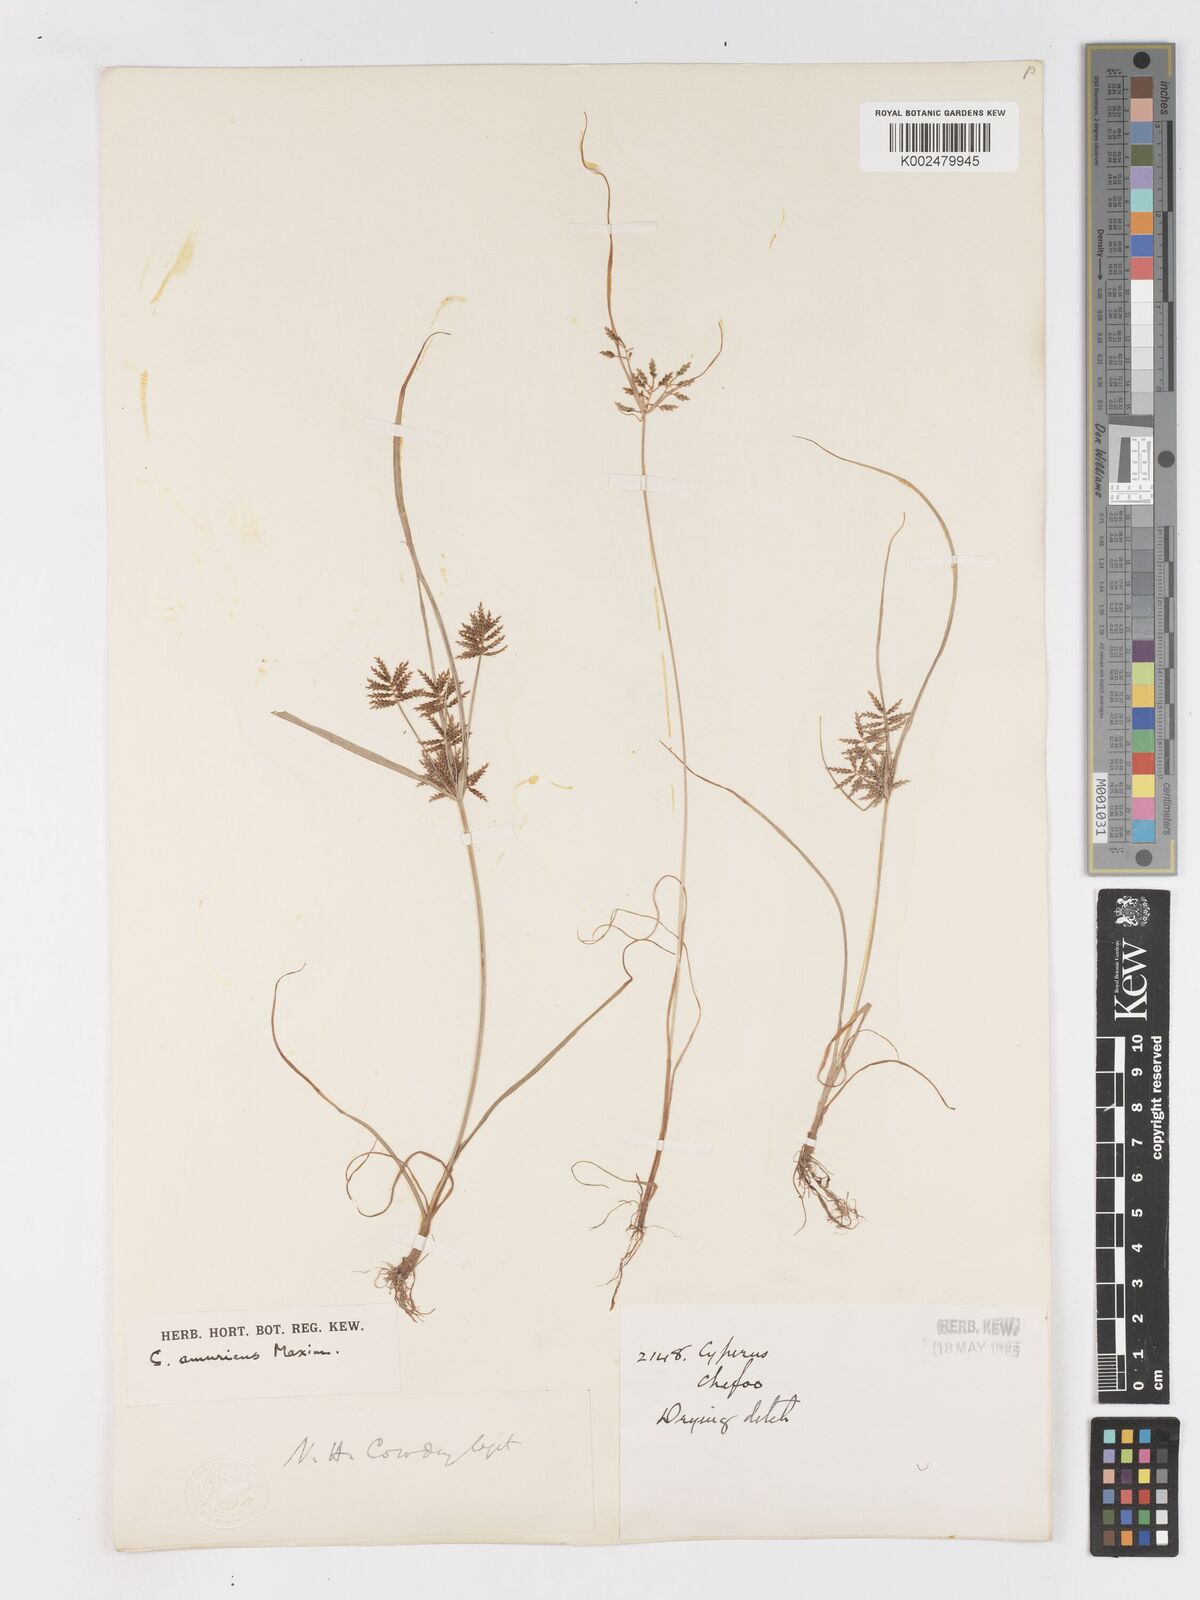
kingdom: Plantae
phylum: Tracheophyta
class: Liliopsida
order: Poales
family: Cyperaceae
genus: Cyperus
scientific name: Cyperus amuricus
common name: Asian flatsedge
